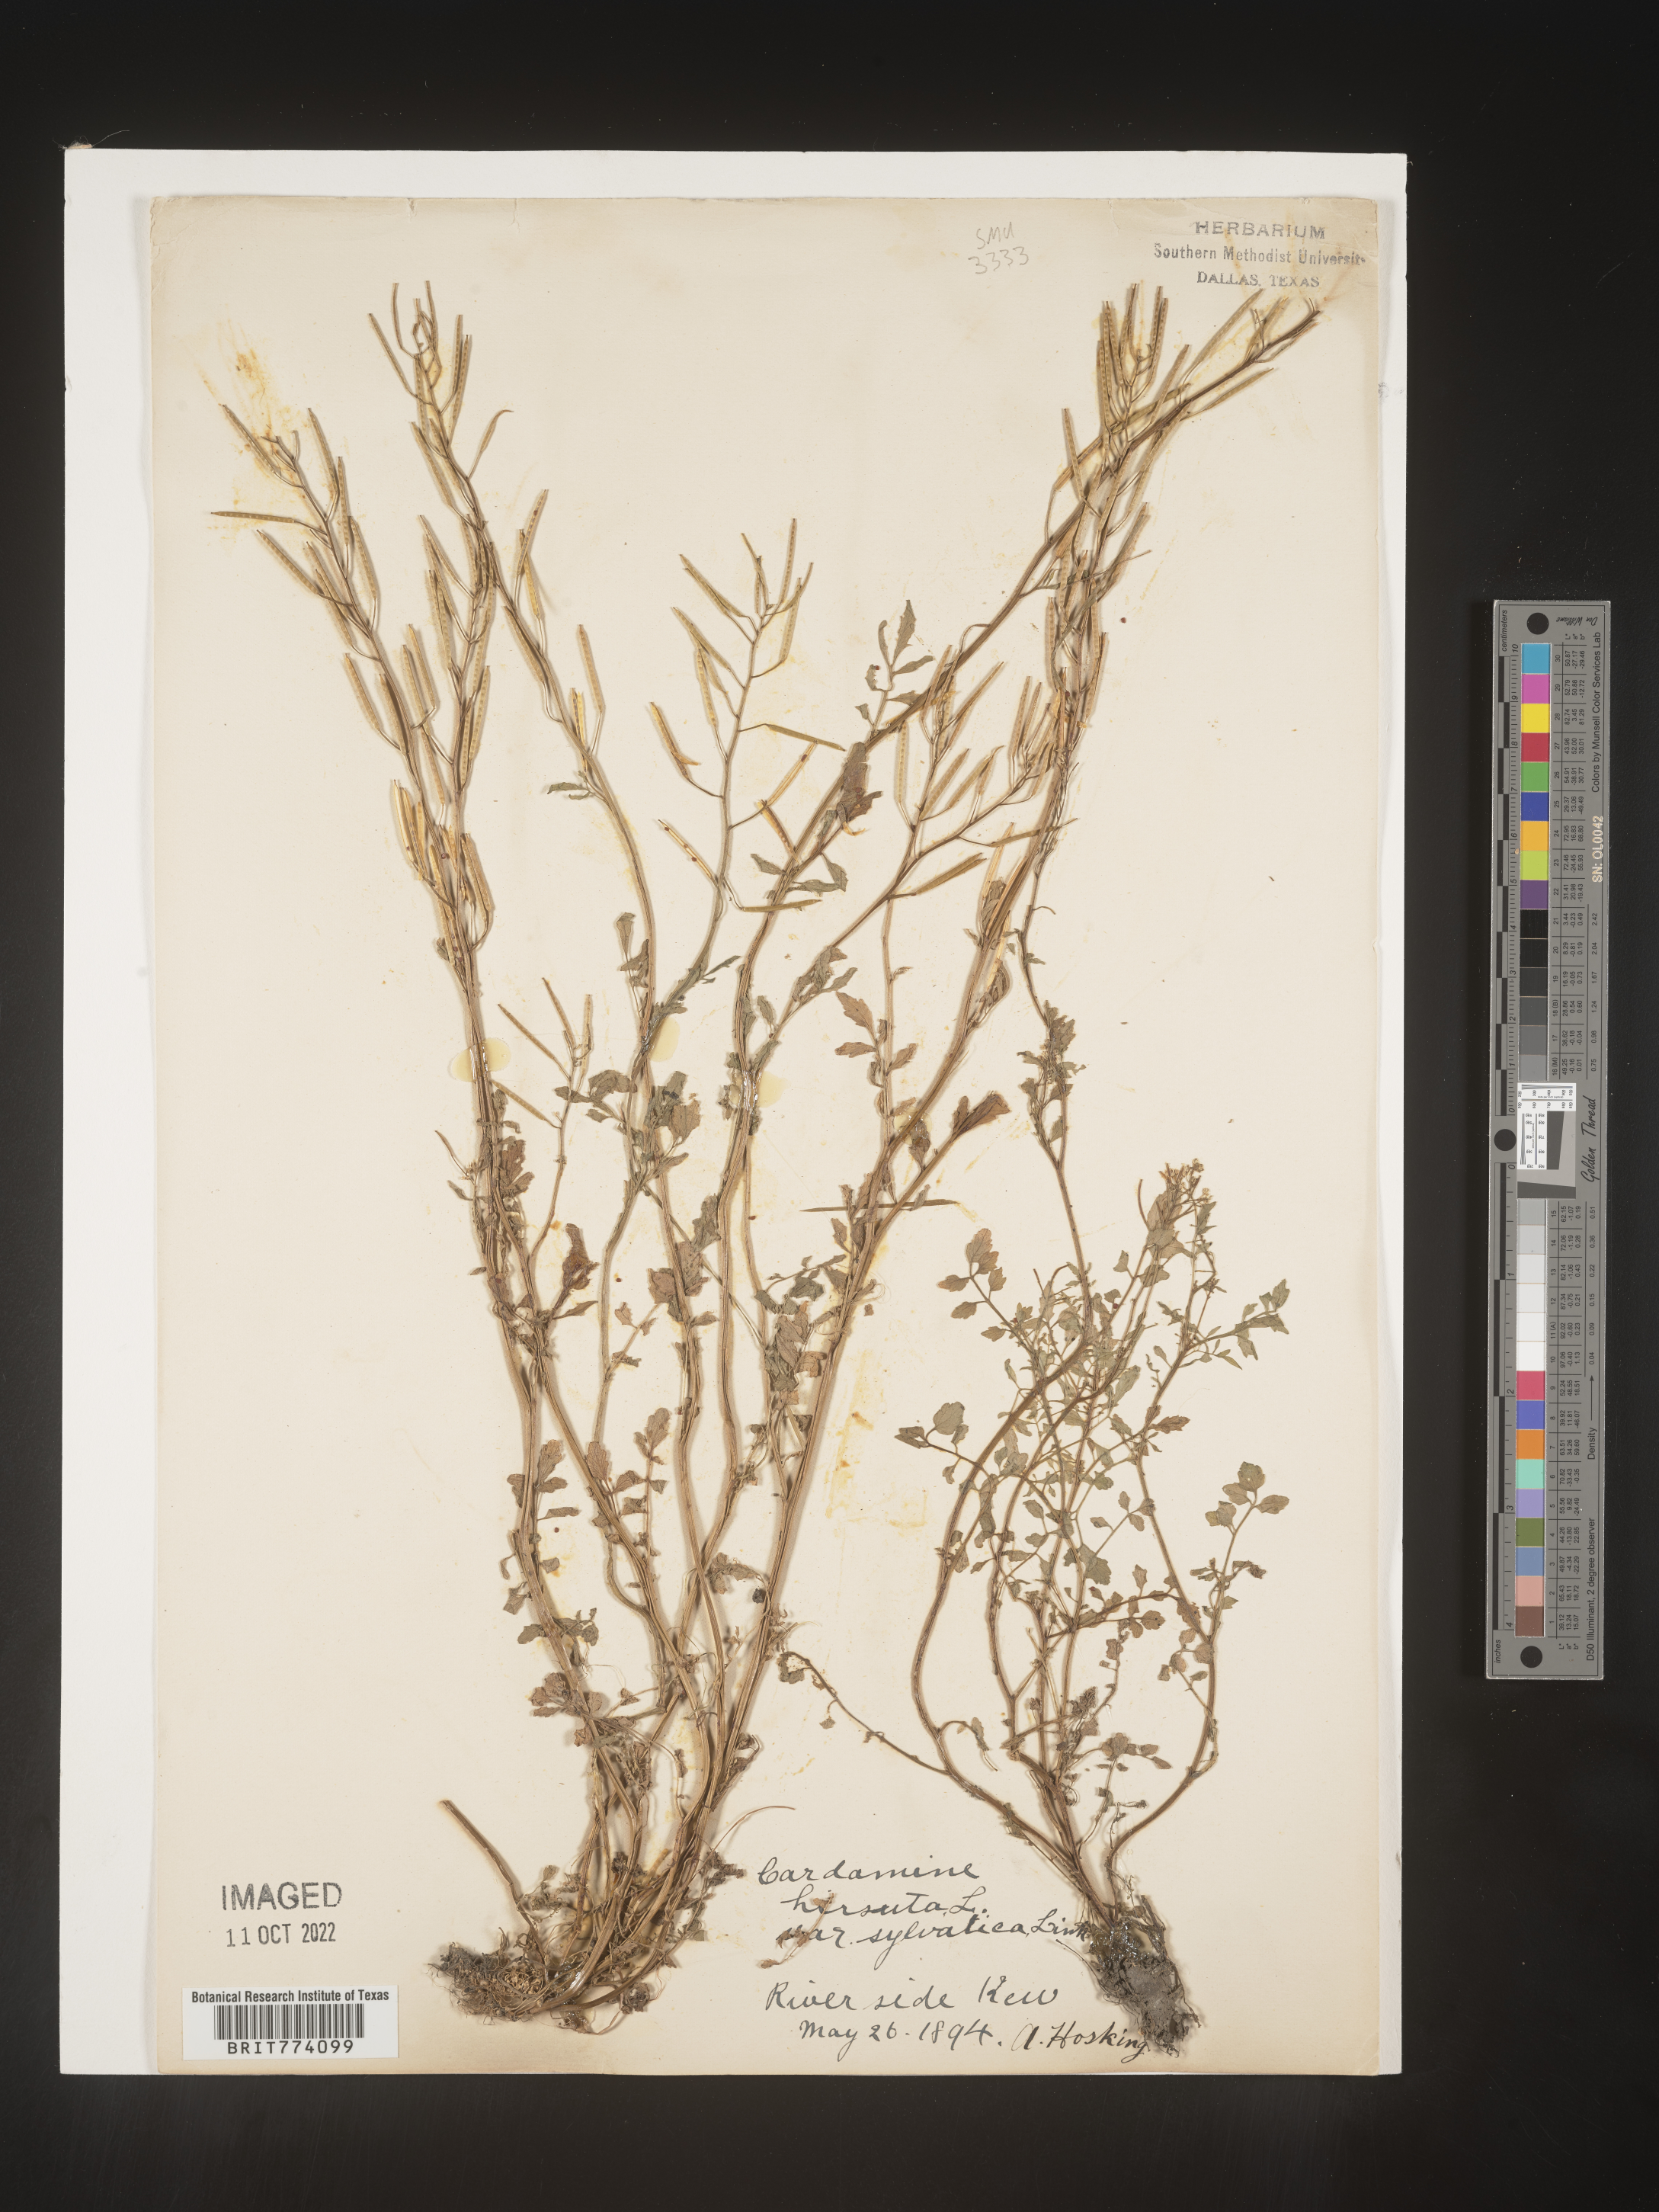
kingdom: Plantae
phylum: Tracheophyta
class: Magnoliopsida
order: Brassicales
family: Brassicaceae
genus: Cardamine
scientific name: Cardamine hirsuta
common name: Hairy bittercress
